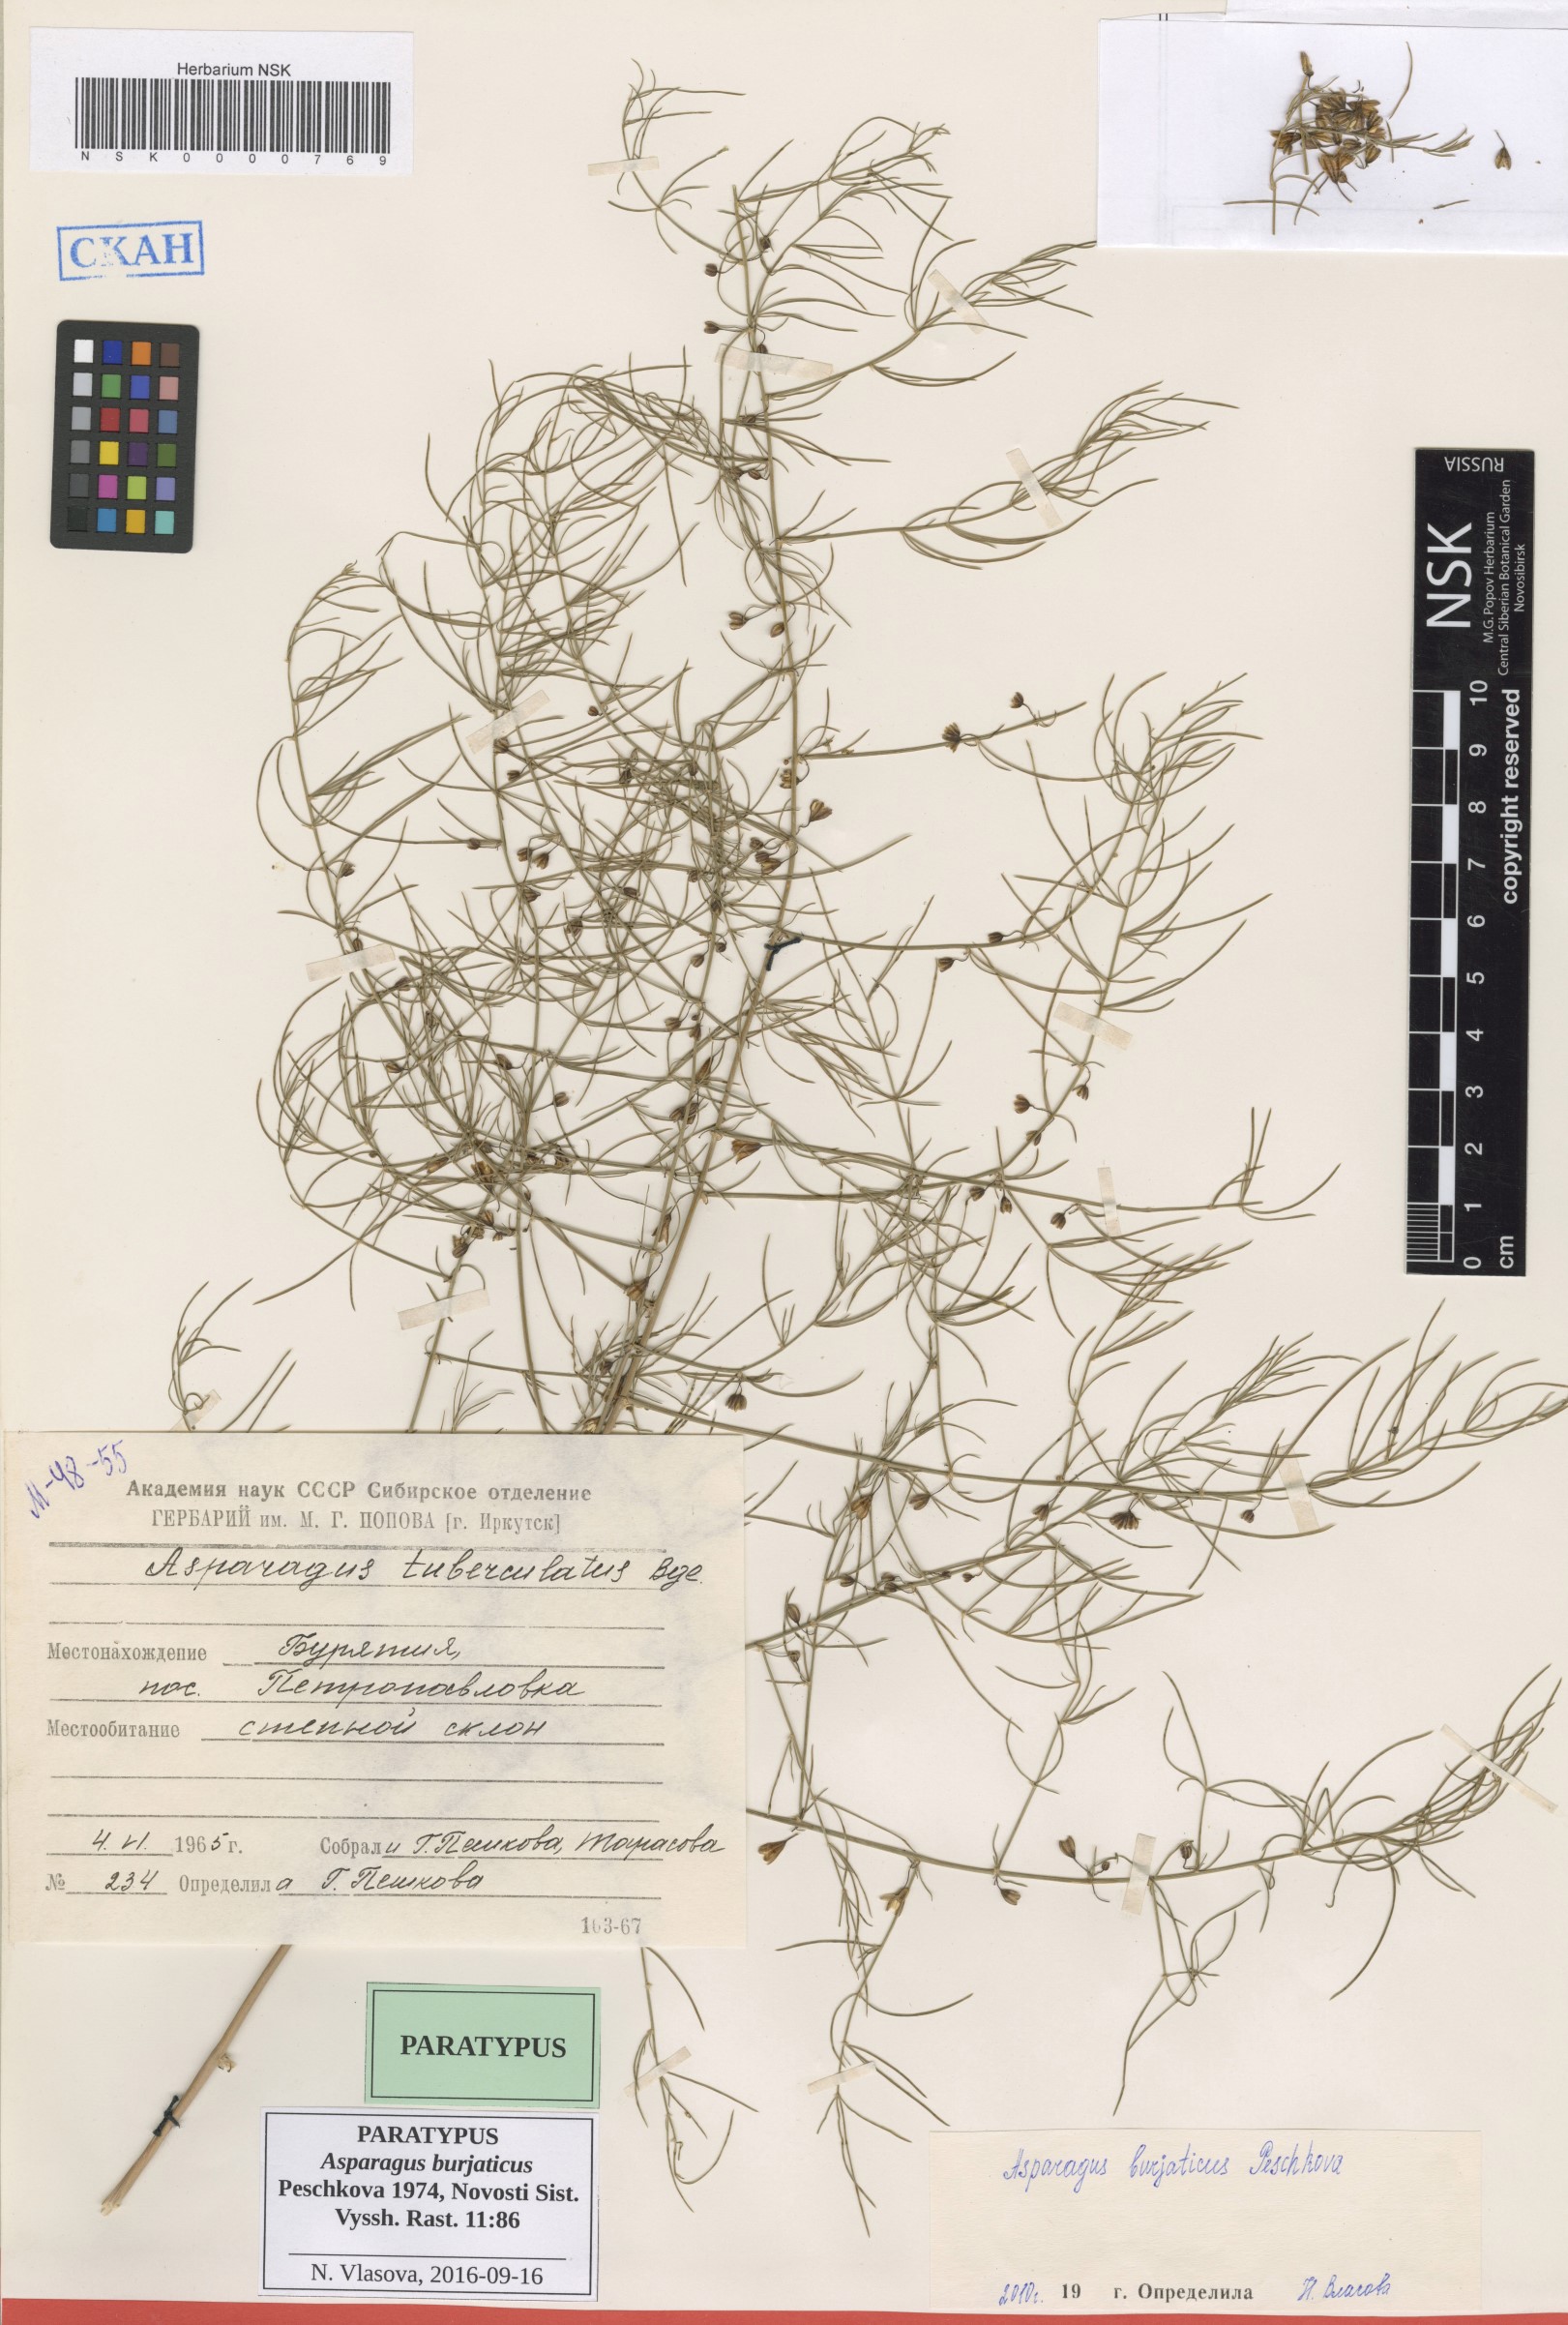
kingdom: Plantae
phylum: Tracheophyta
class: Liliopsida
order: Asparagales
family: Asparagaceae
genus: Asparagus
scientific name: Asparagus burjaticus
